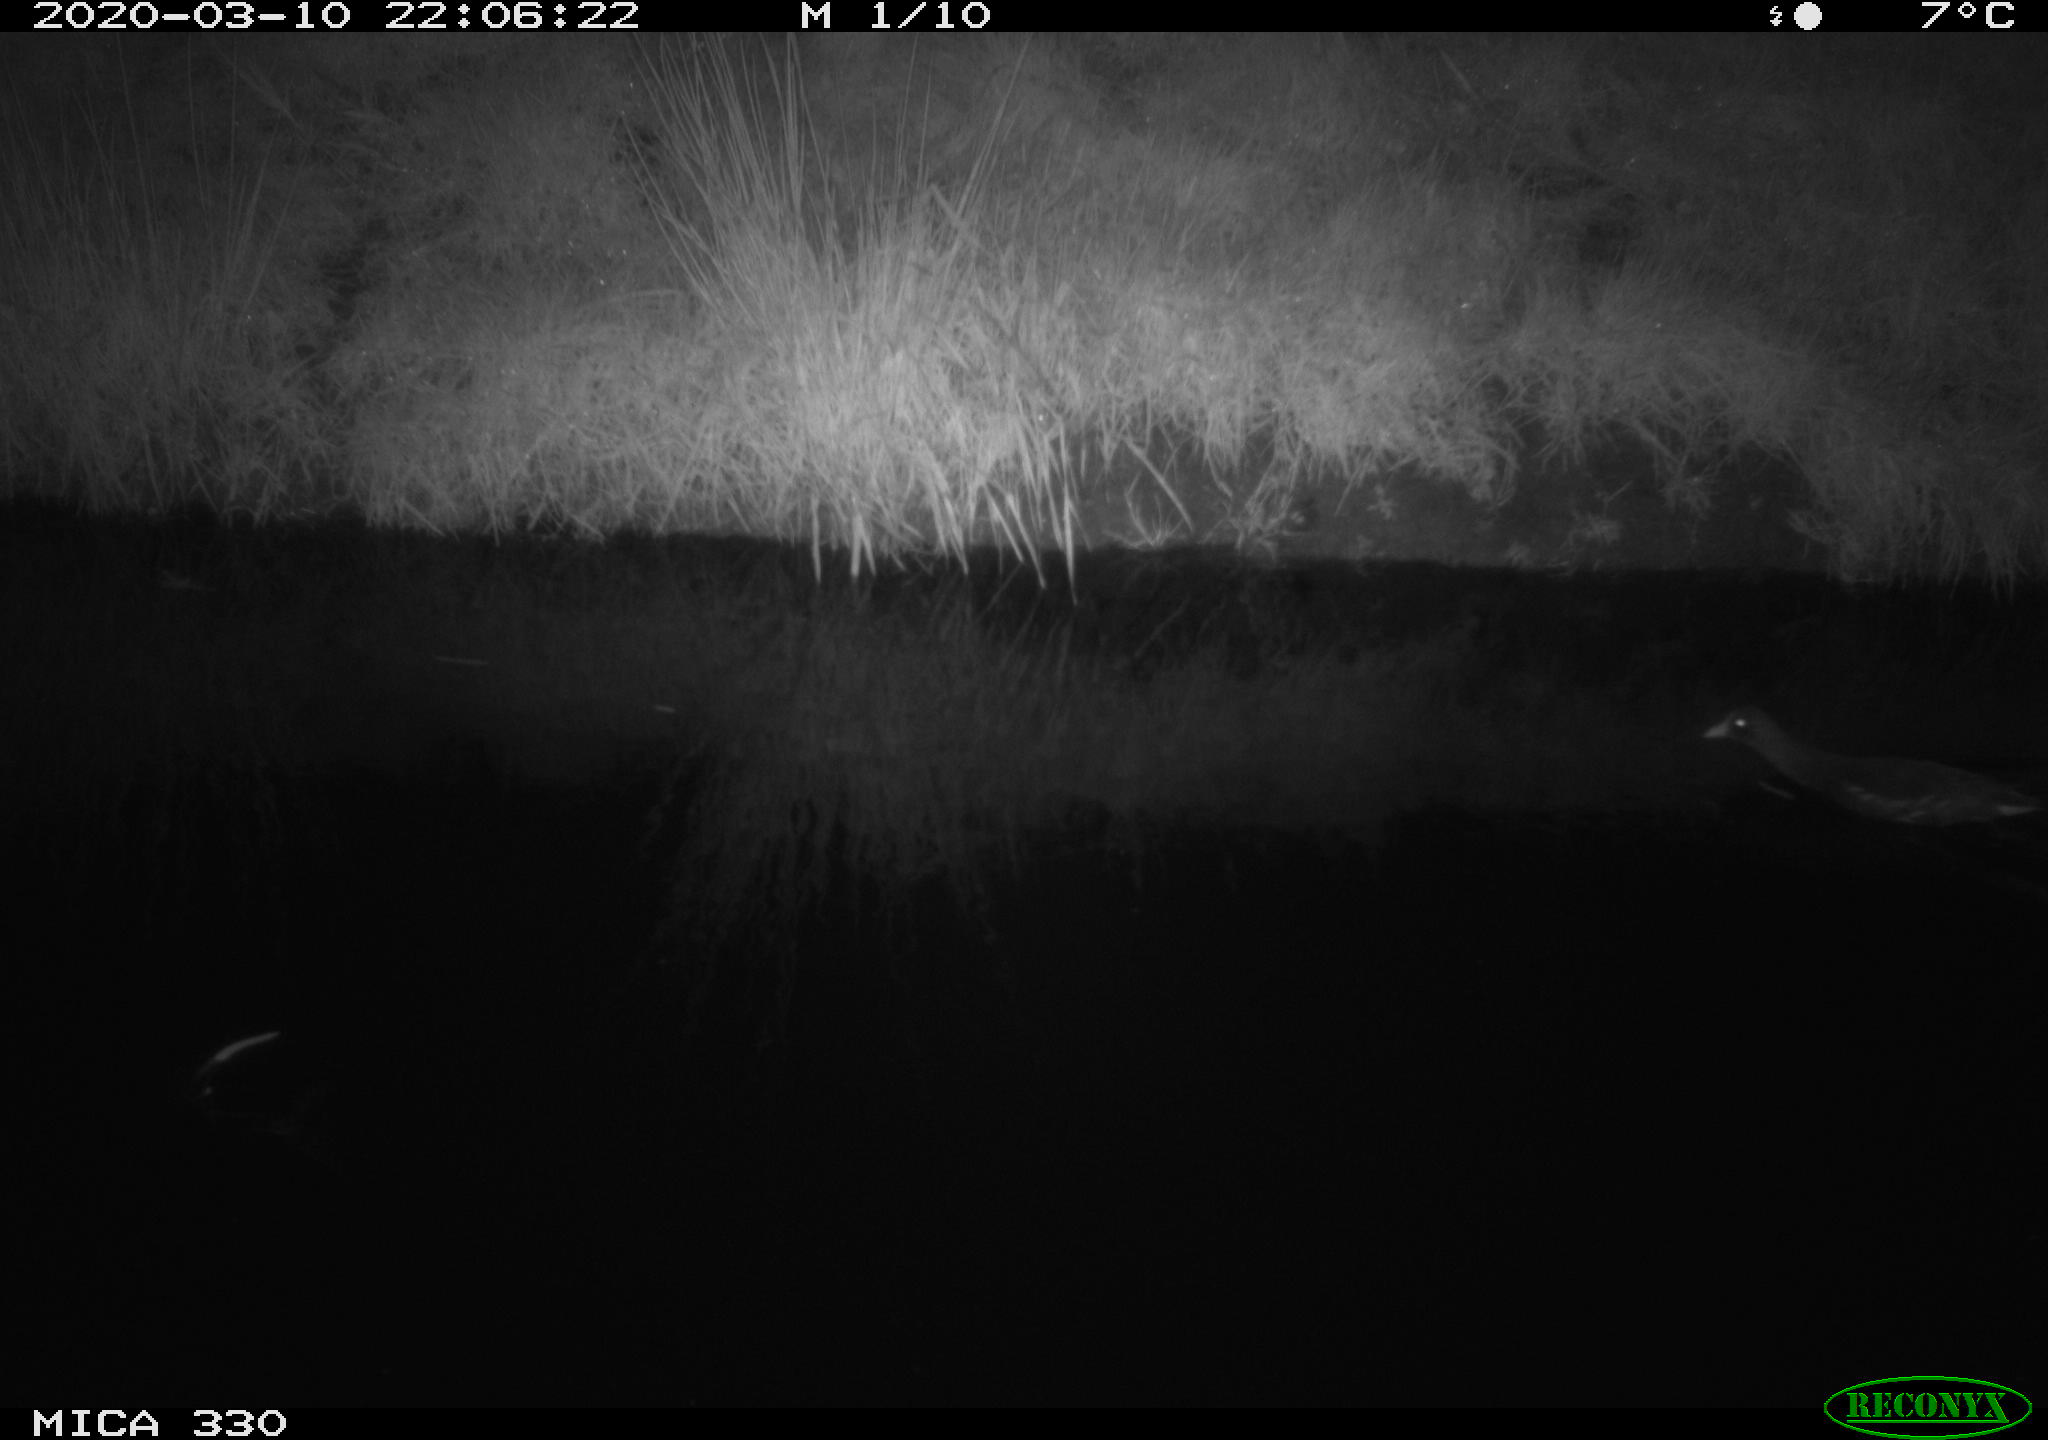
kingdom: Animalia
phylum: Chordata
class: Aves
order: Gruiformes
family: Rallidae
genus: Gallinula
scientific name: Gallinula chloropus
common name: Common moorhen
